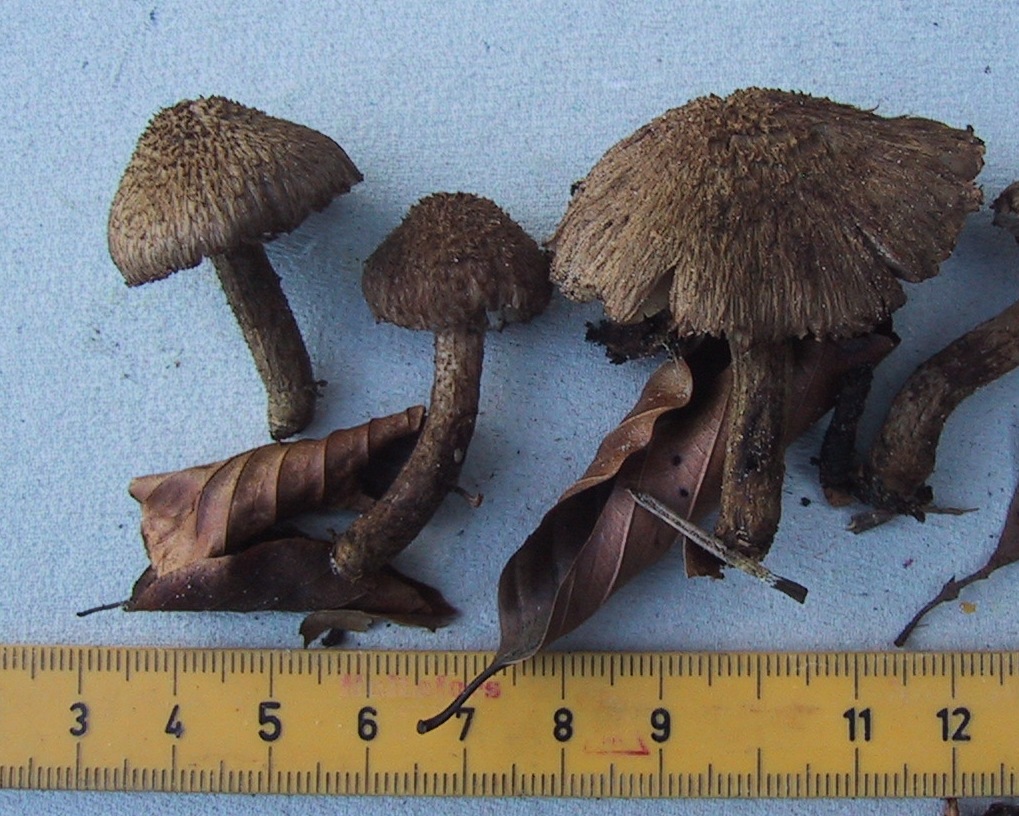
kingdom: Fungi
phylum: Basidiomycota
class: Agaricomycetes
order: Agaricales
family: Inocybaceae
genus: Inocybe
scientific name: Inocybe lanuginosa
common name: uldskællet trævlhat
